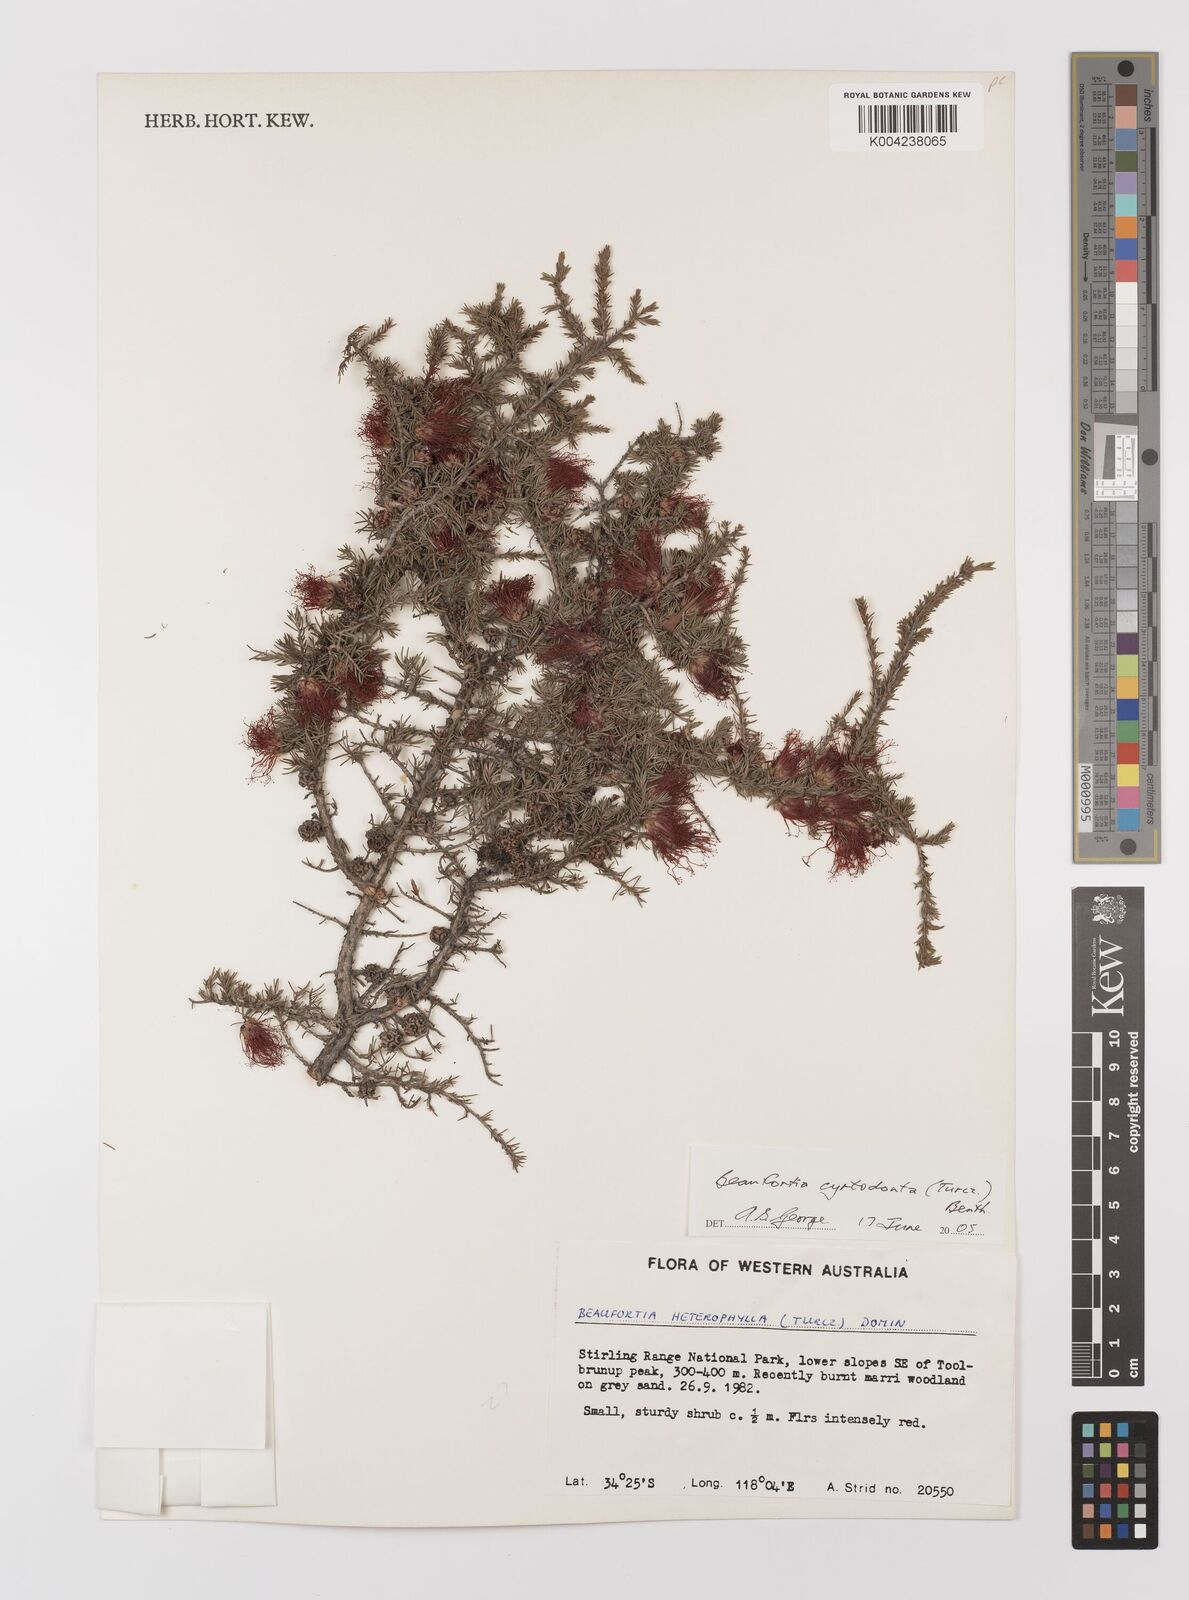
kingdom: Plantae
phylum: Tracheophyta
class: Magnoliopsida
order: Myrtales
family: Myrtaceae
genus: Melaleuca
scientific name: Melaleuca cyrtodonta
